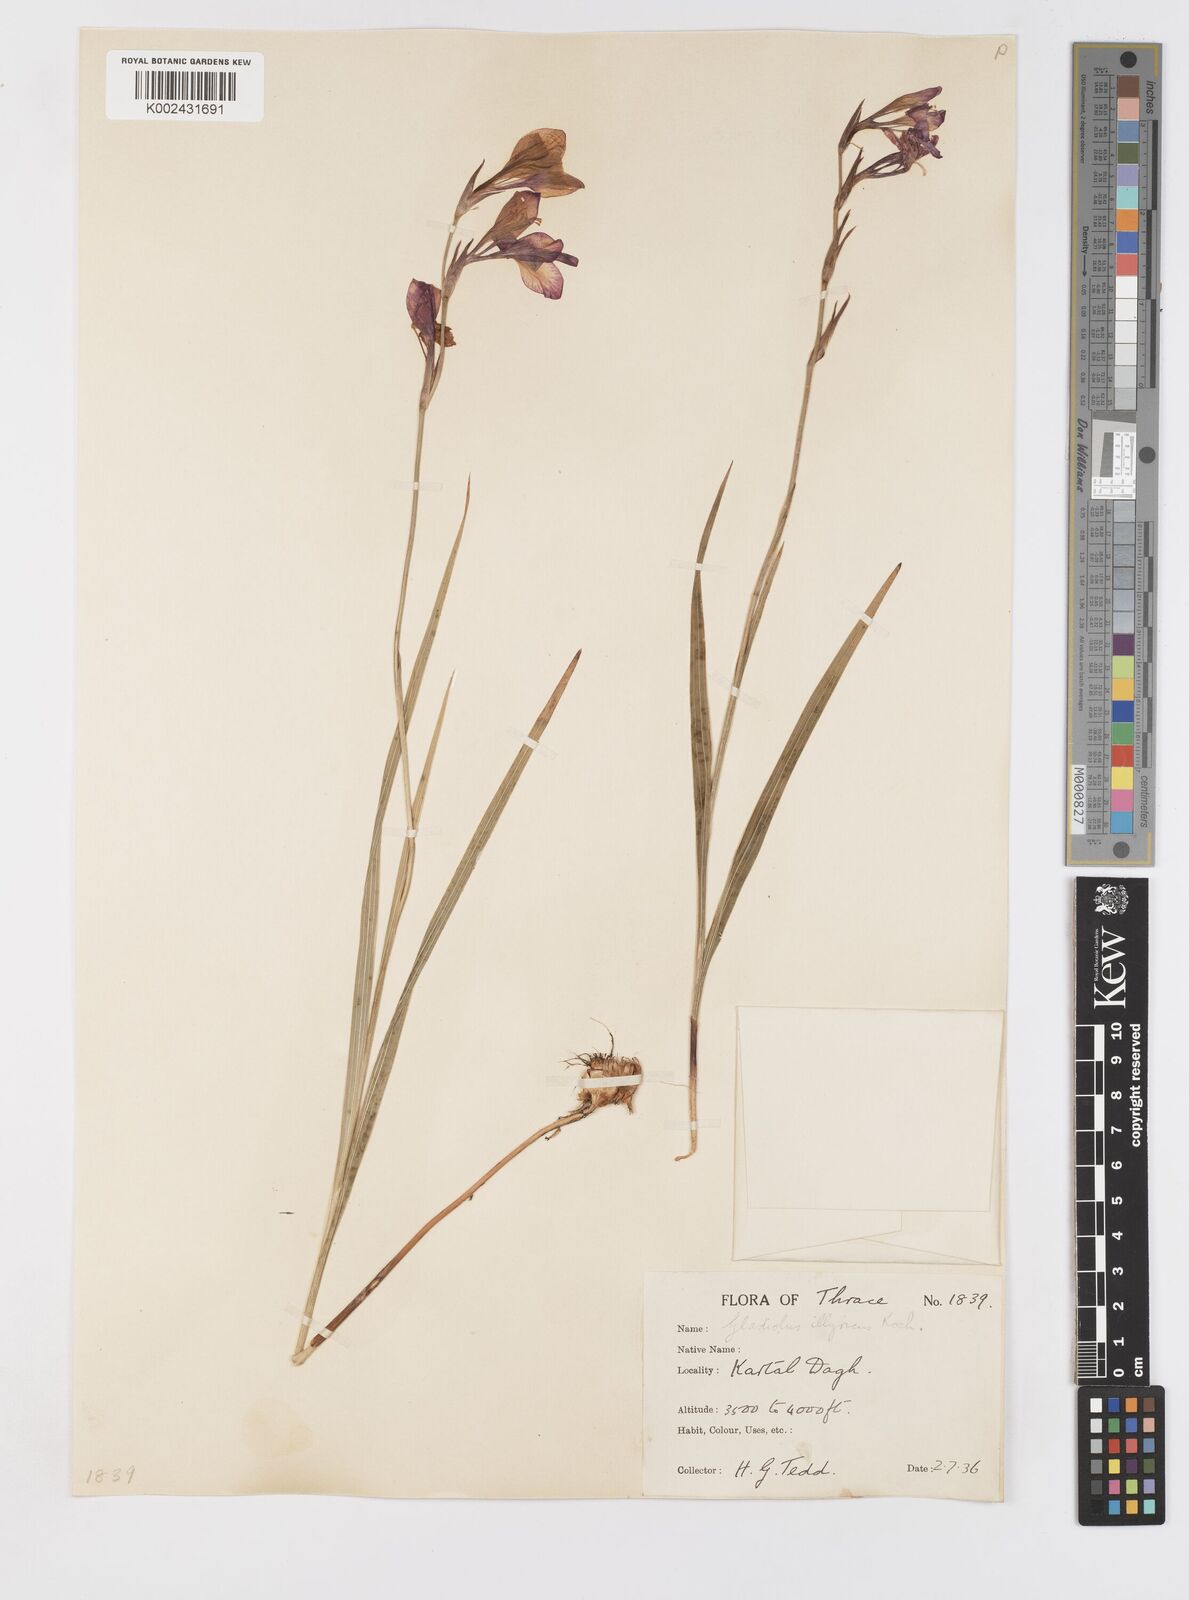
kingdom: Plantae
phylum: Tracheophyta
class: Liliopsida
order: Asparagales
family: Iridaceae
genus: Gladiolus
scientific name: Gladiolus illyricus
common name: Wild gladiolus
